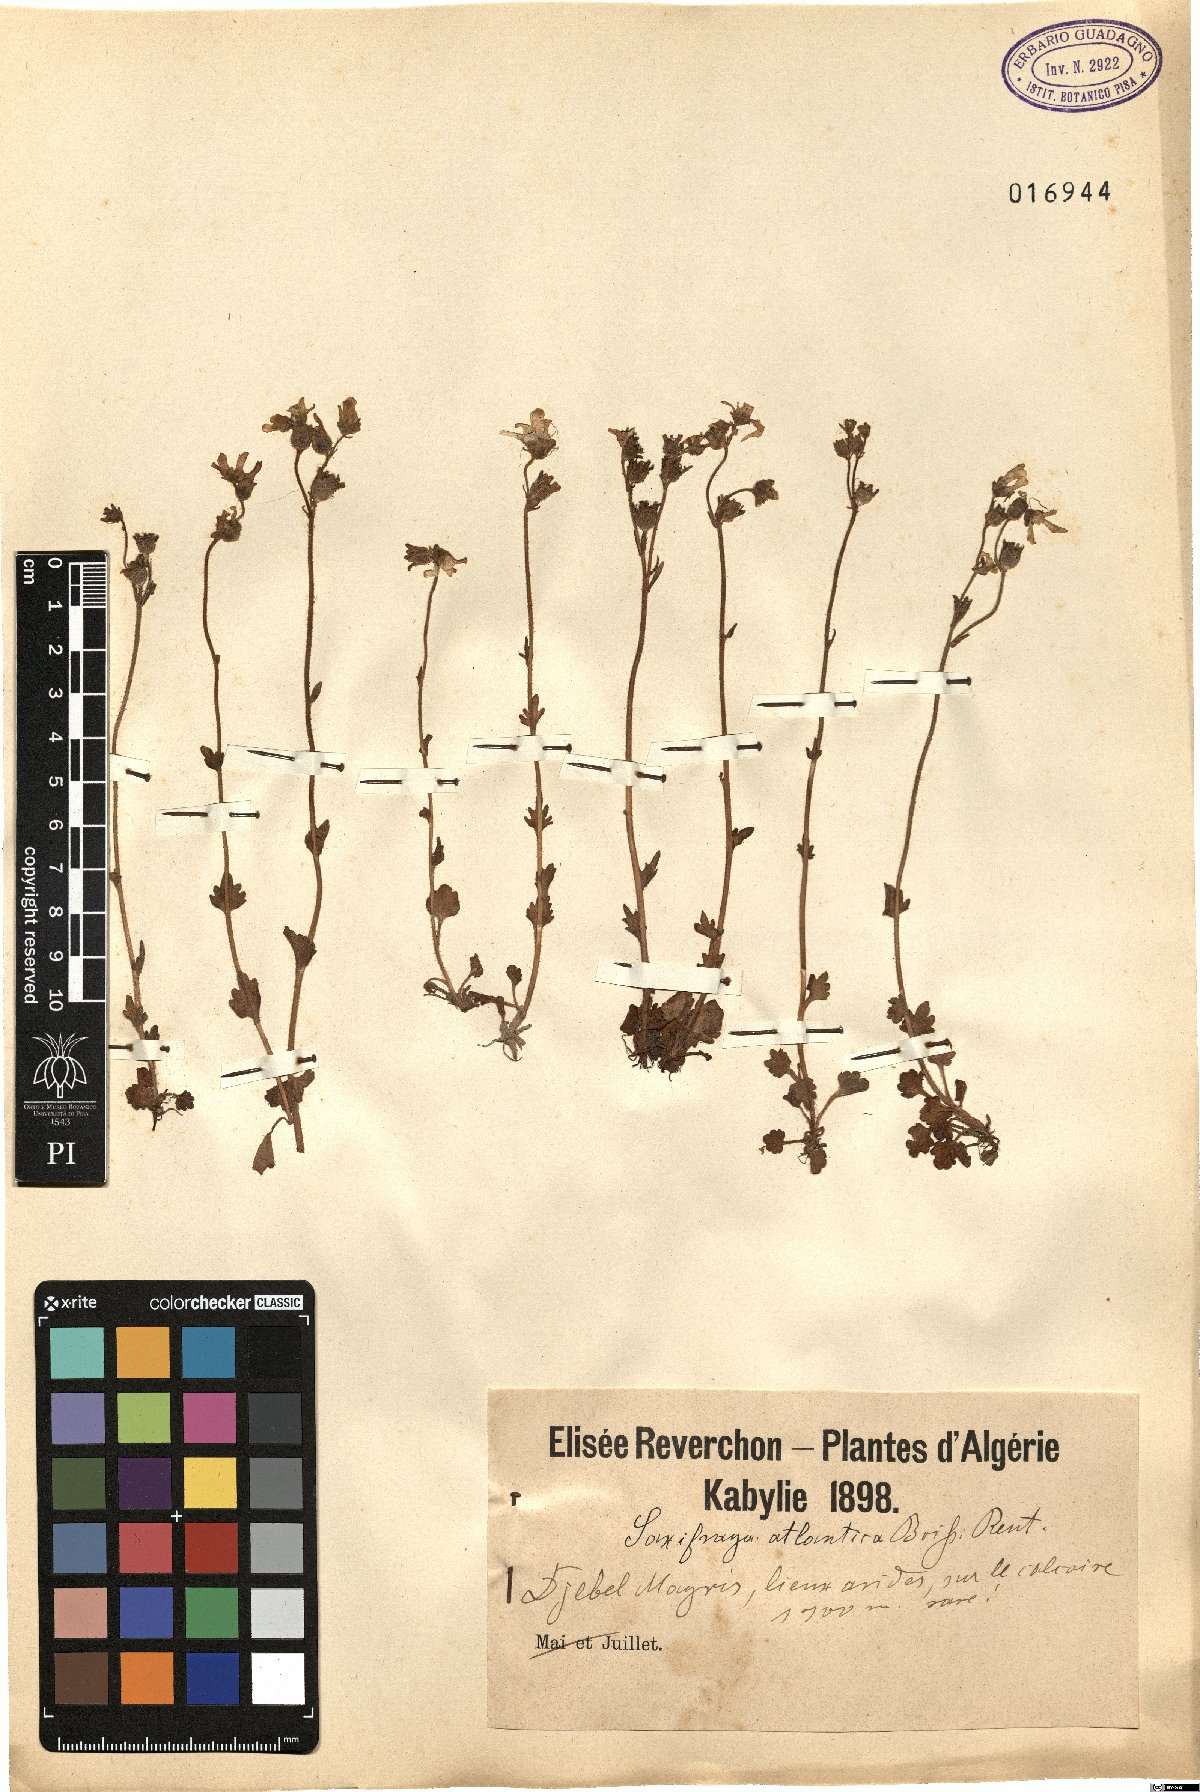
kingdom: Plantae
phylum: Tracheophyta
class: Magnoliopsida
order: Saxifragales
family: Saxifragaceae
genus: Saxifraga
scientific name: Saxifraga carpetana
